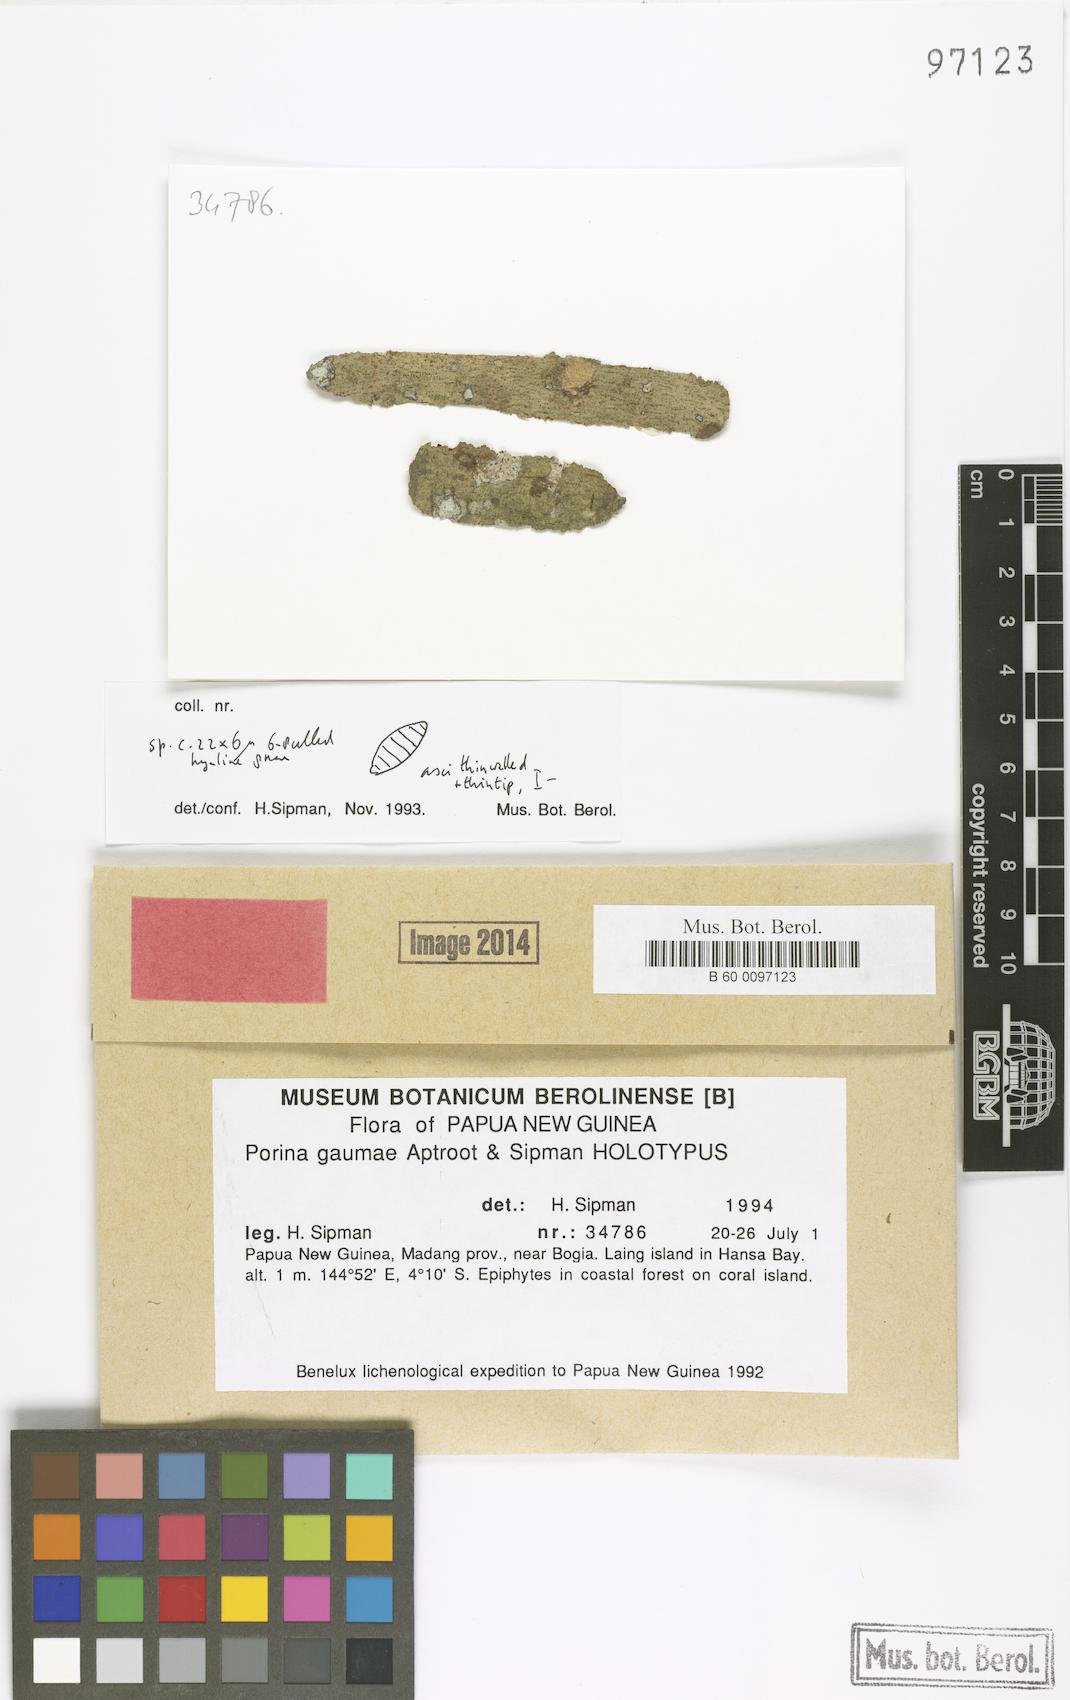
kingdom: Fungi
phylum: Ascomycota
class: Lecanoromycetes
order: Ostropales
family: Porinaceae
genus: Porina
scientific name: Porina
